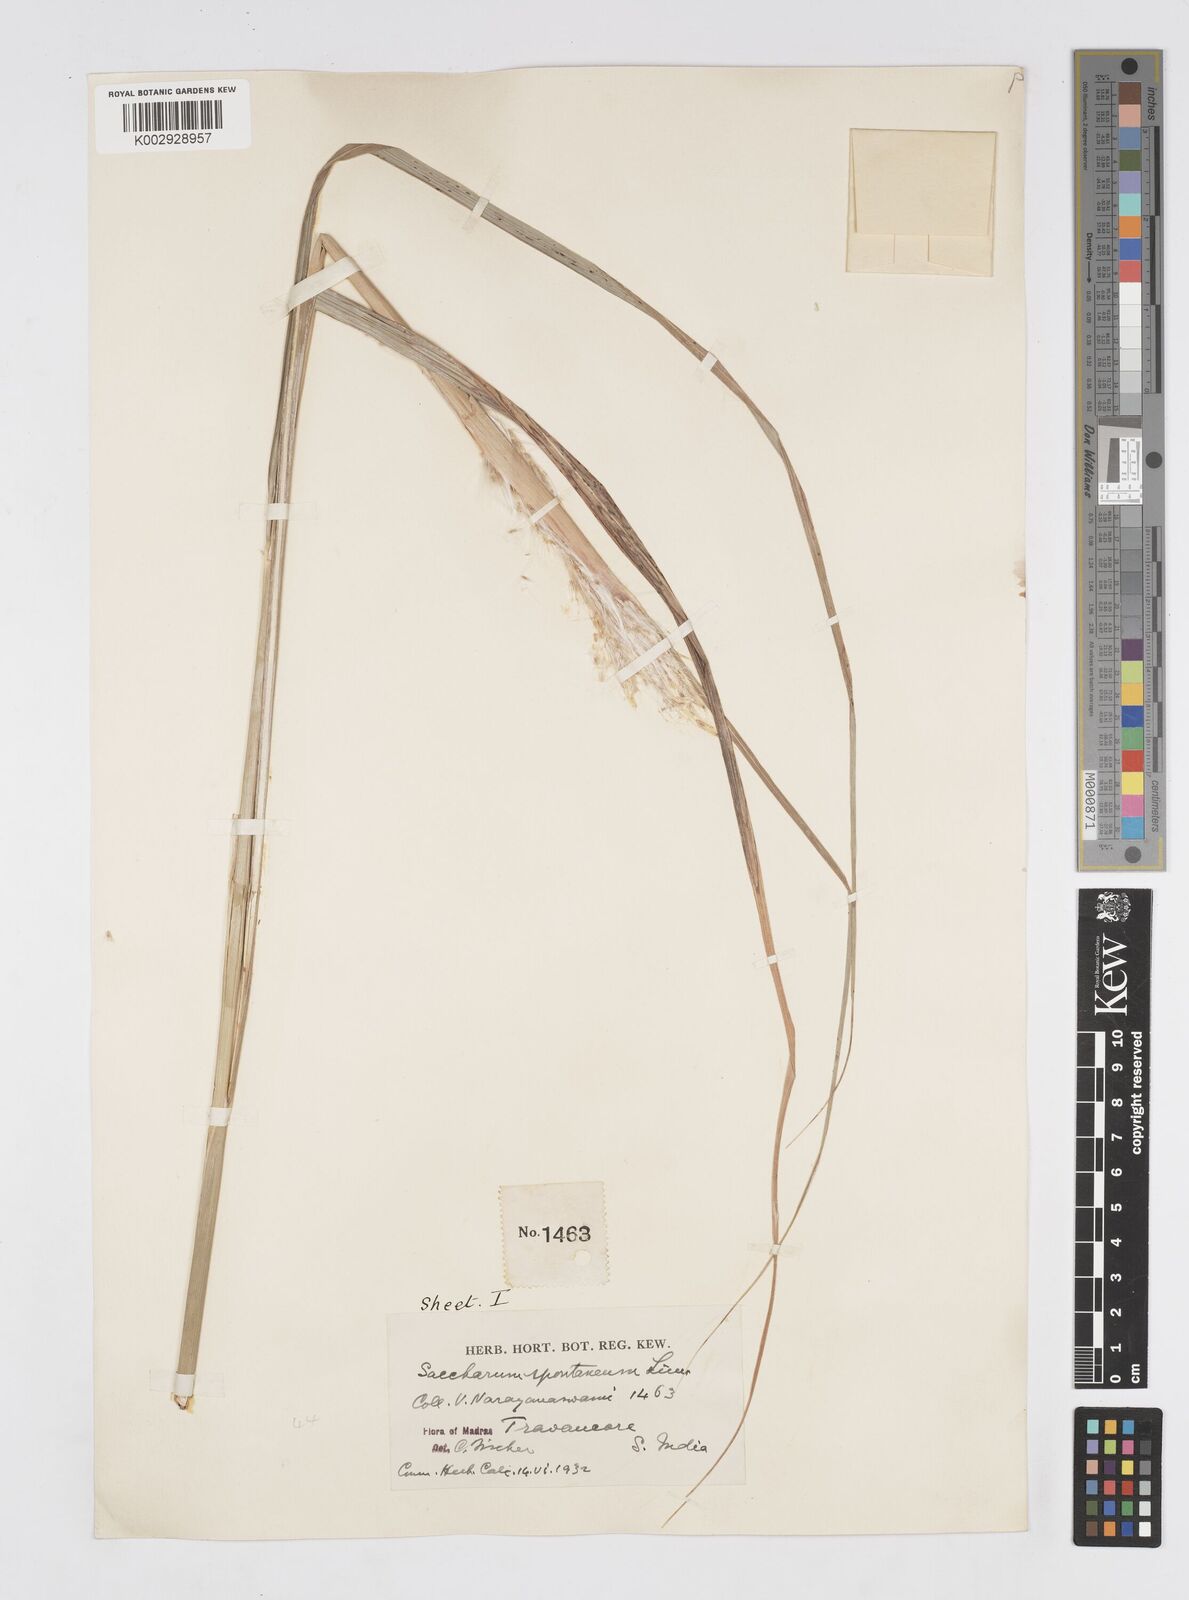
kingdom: Plantae
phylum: Tracheophyta
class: Liliopsida
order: Poales
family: Poaceae
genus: Saccharum
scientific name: Saccharum spontaneum
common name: Wild sugarcane
